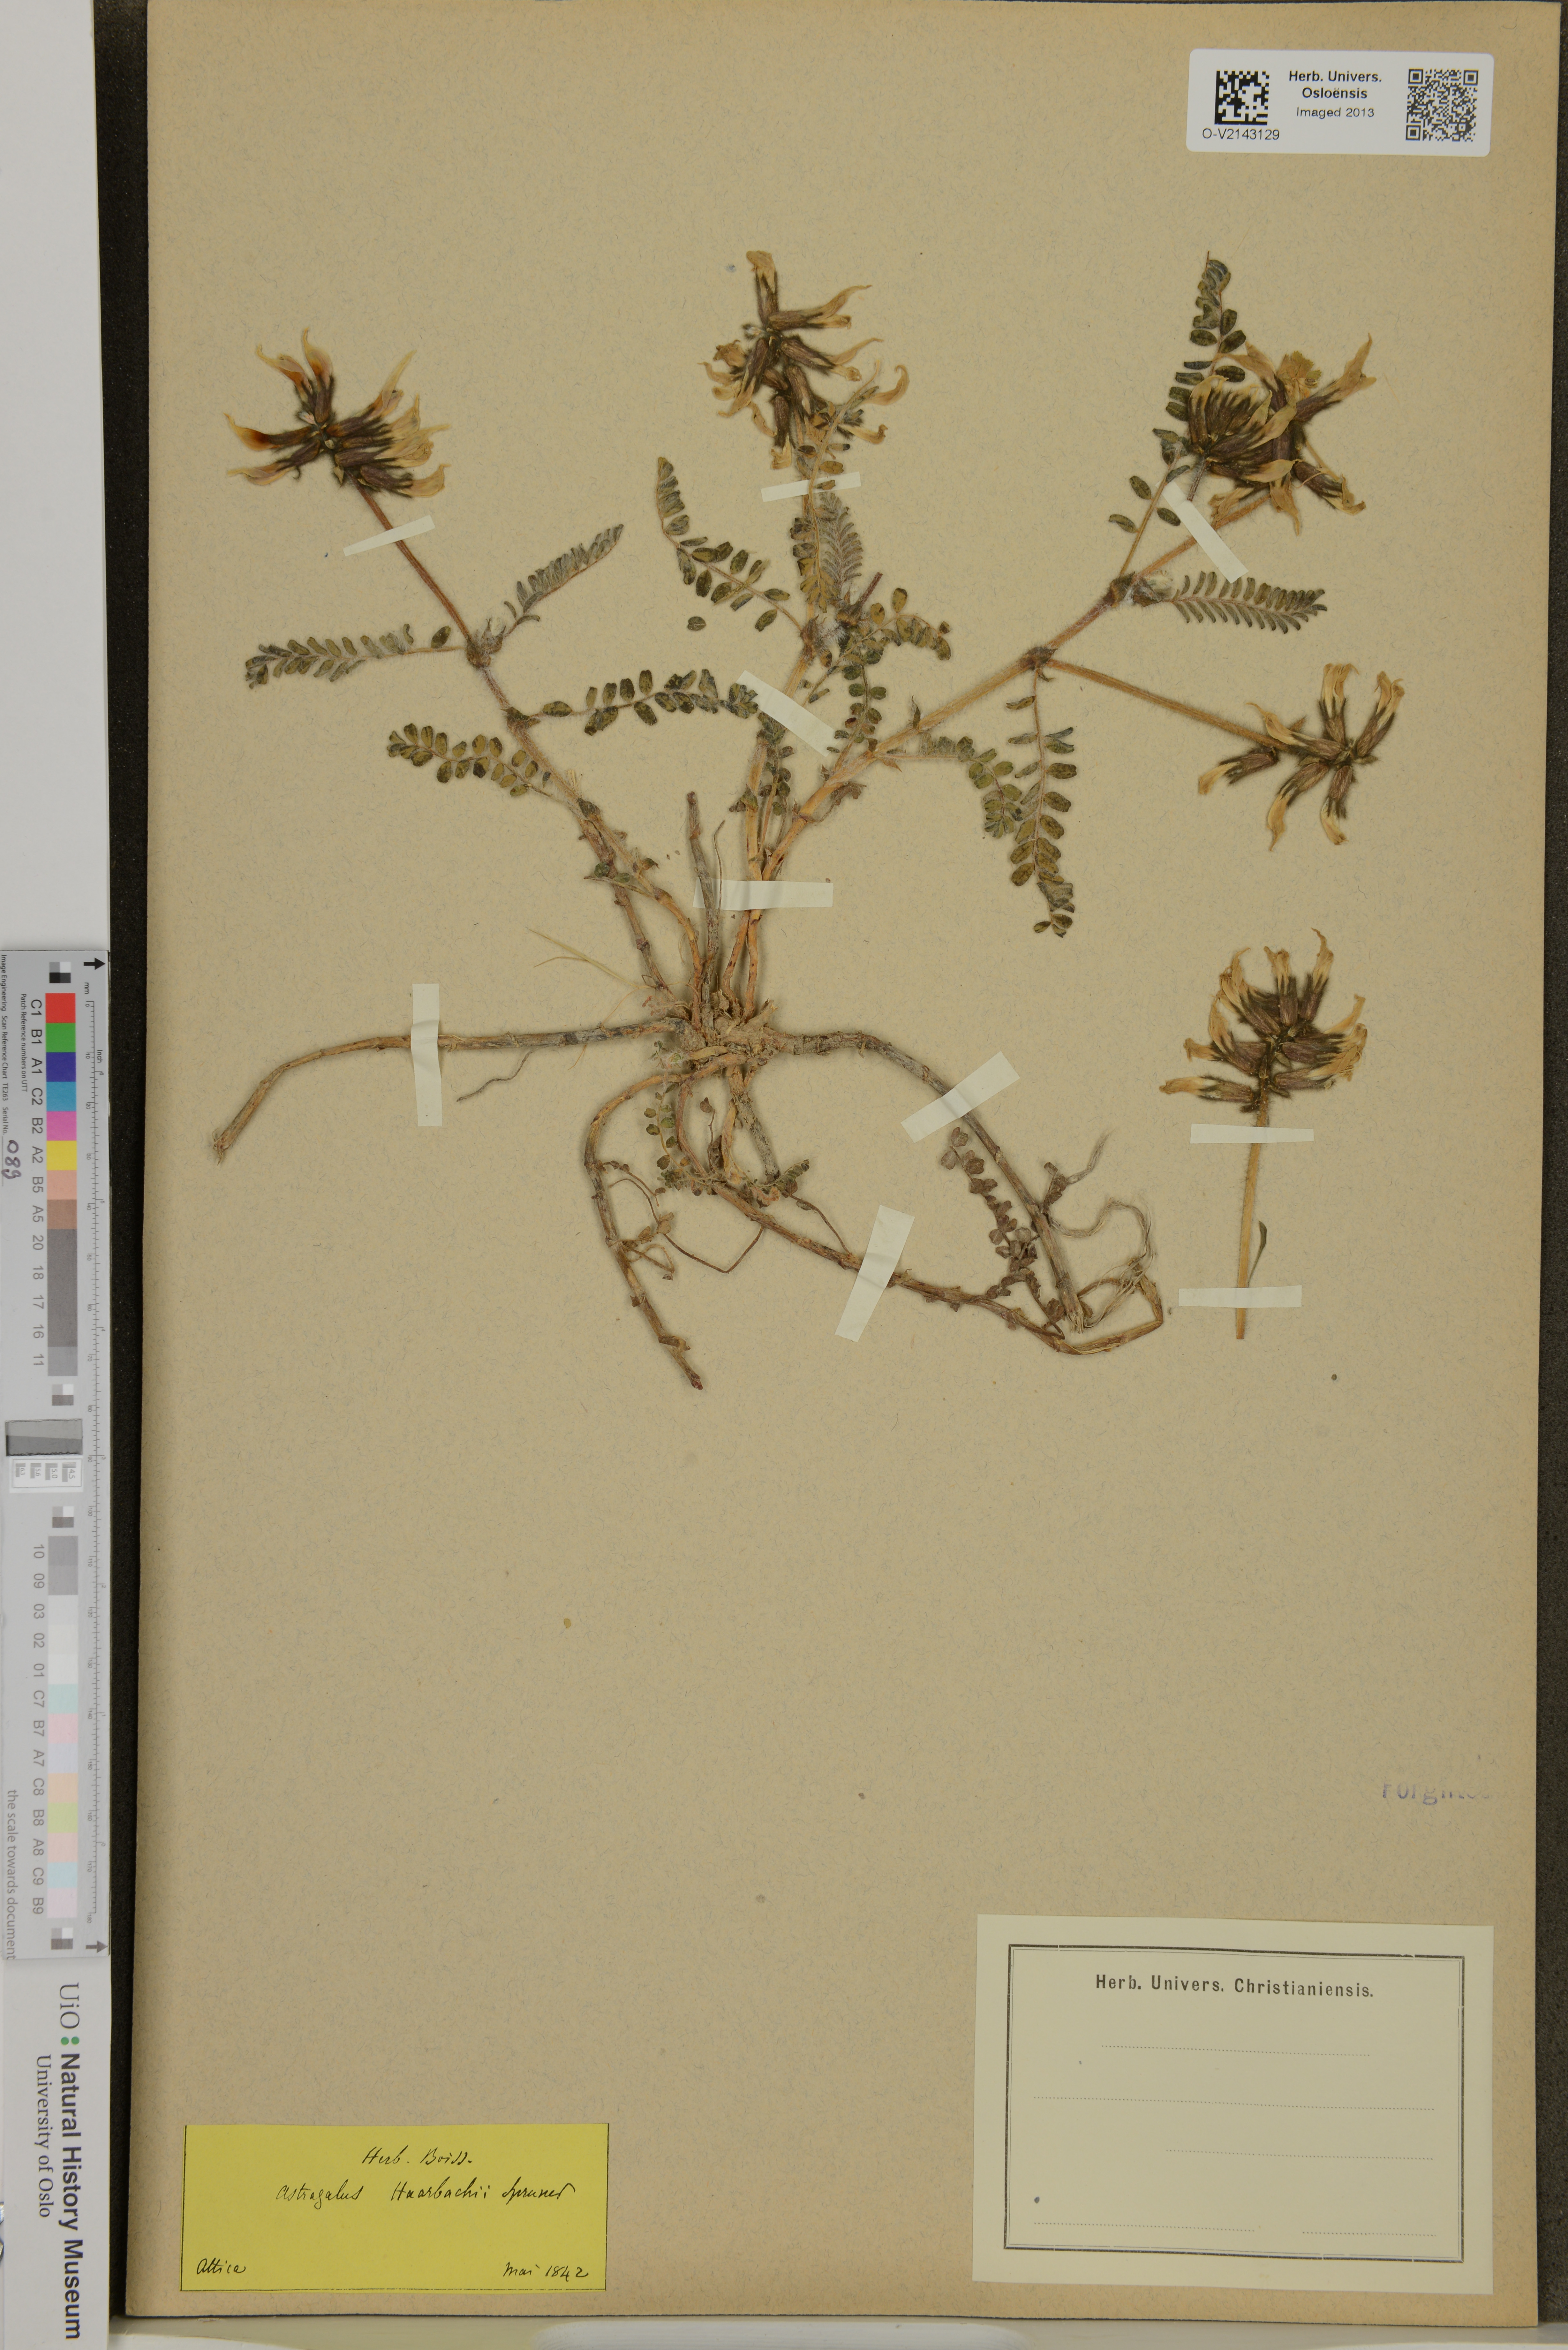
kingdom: Plantae
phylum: Tracheophyta
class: Magnoliopsida
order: Fabales
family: Fabaceae
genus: Astragalus
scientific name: Astragalus suberosus
